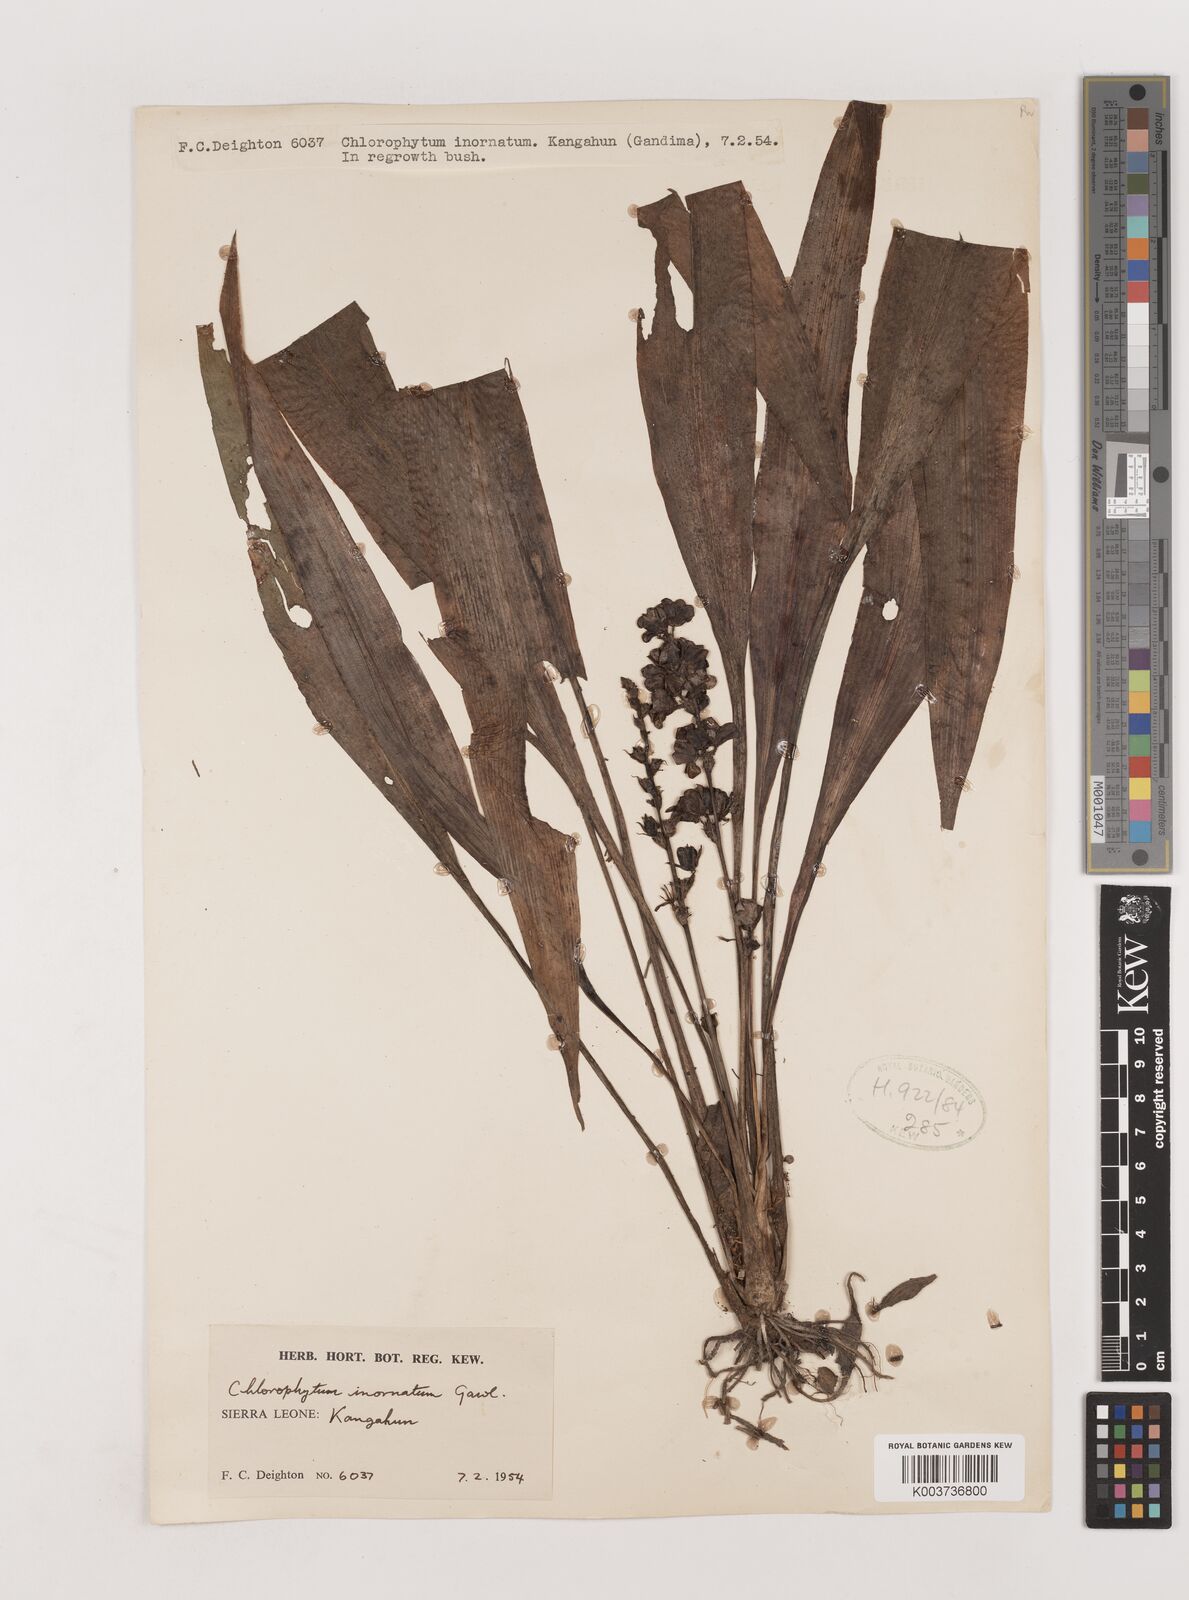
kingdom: Plantae
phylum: Tracheophyta
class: Liliopsida
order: Asparagales
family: Asparagaceae
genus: Chlorophytum
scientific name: Chlorophytum inornatum
